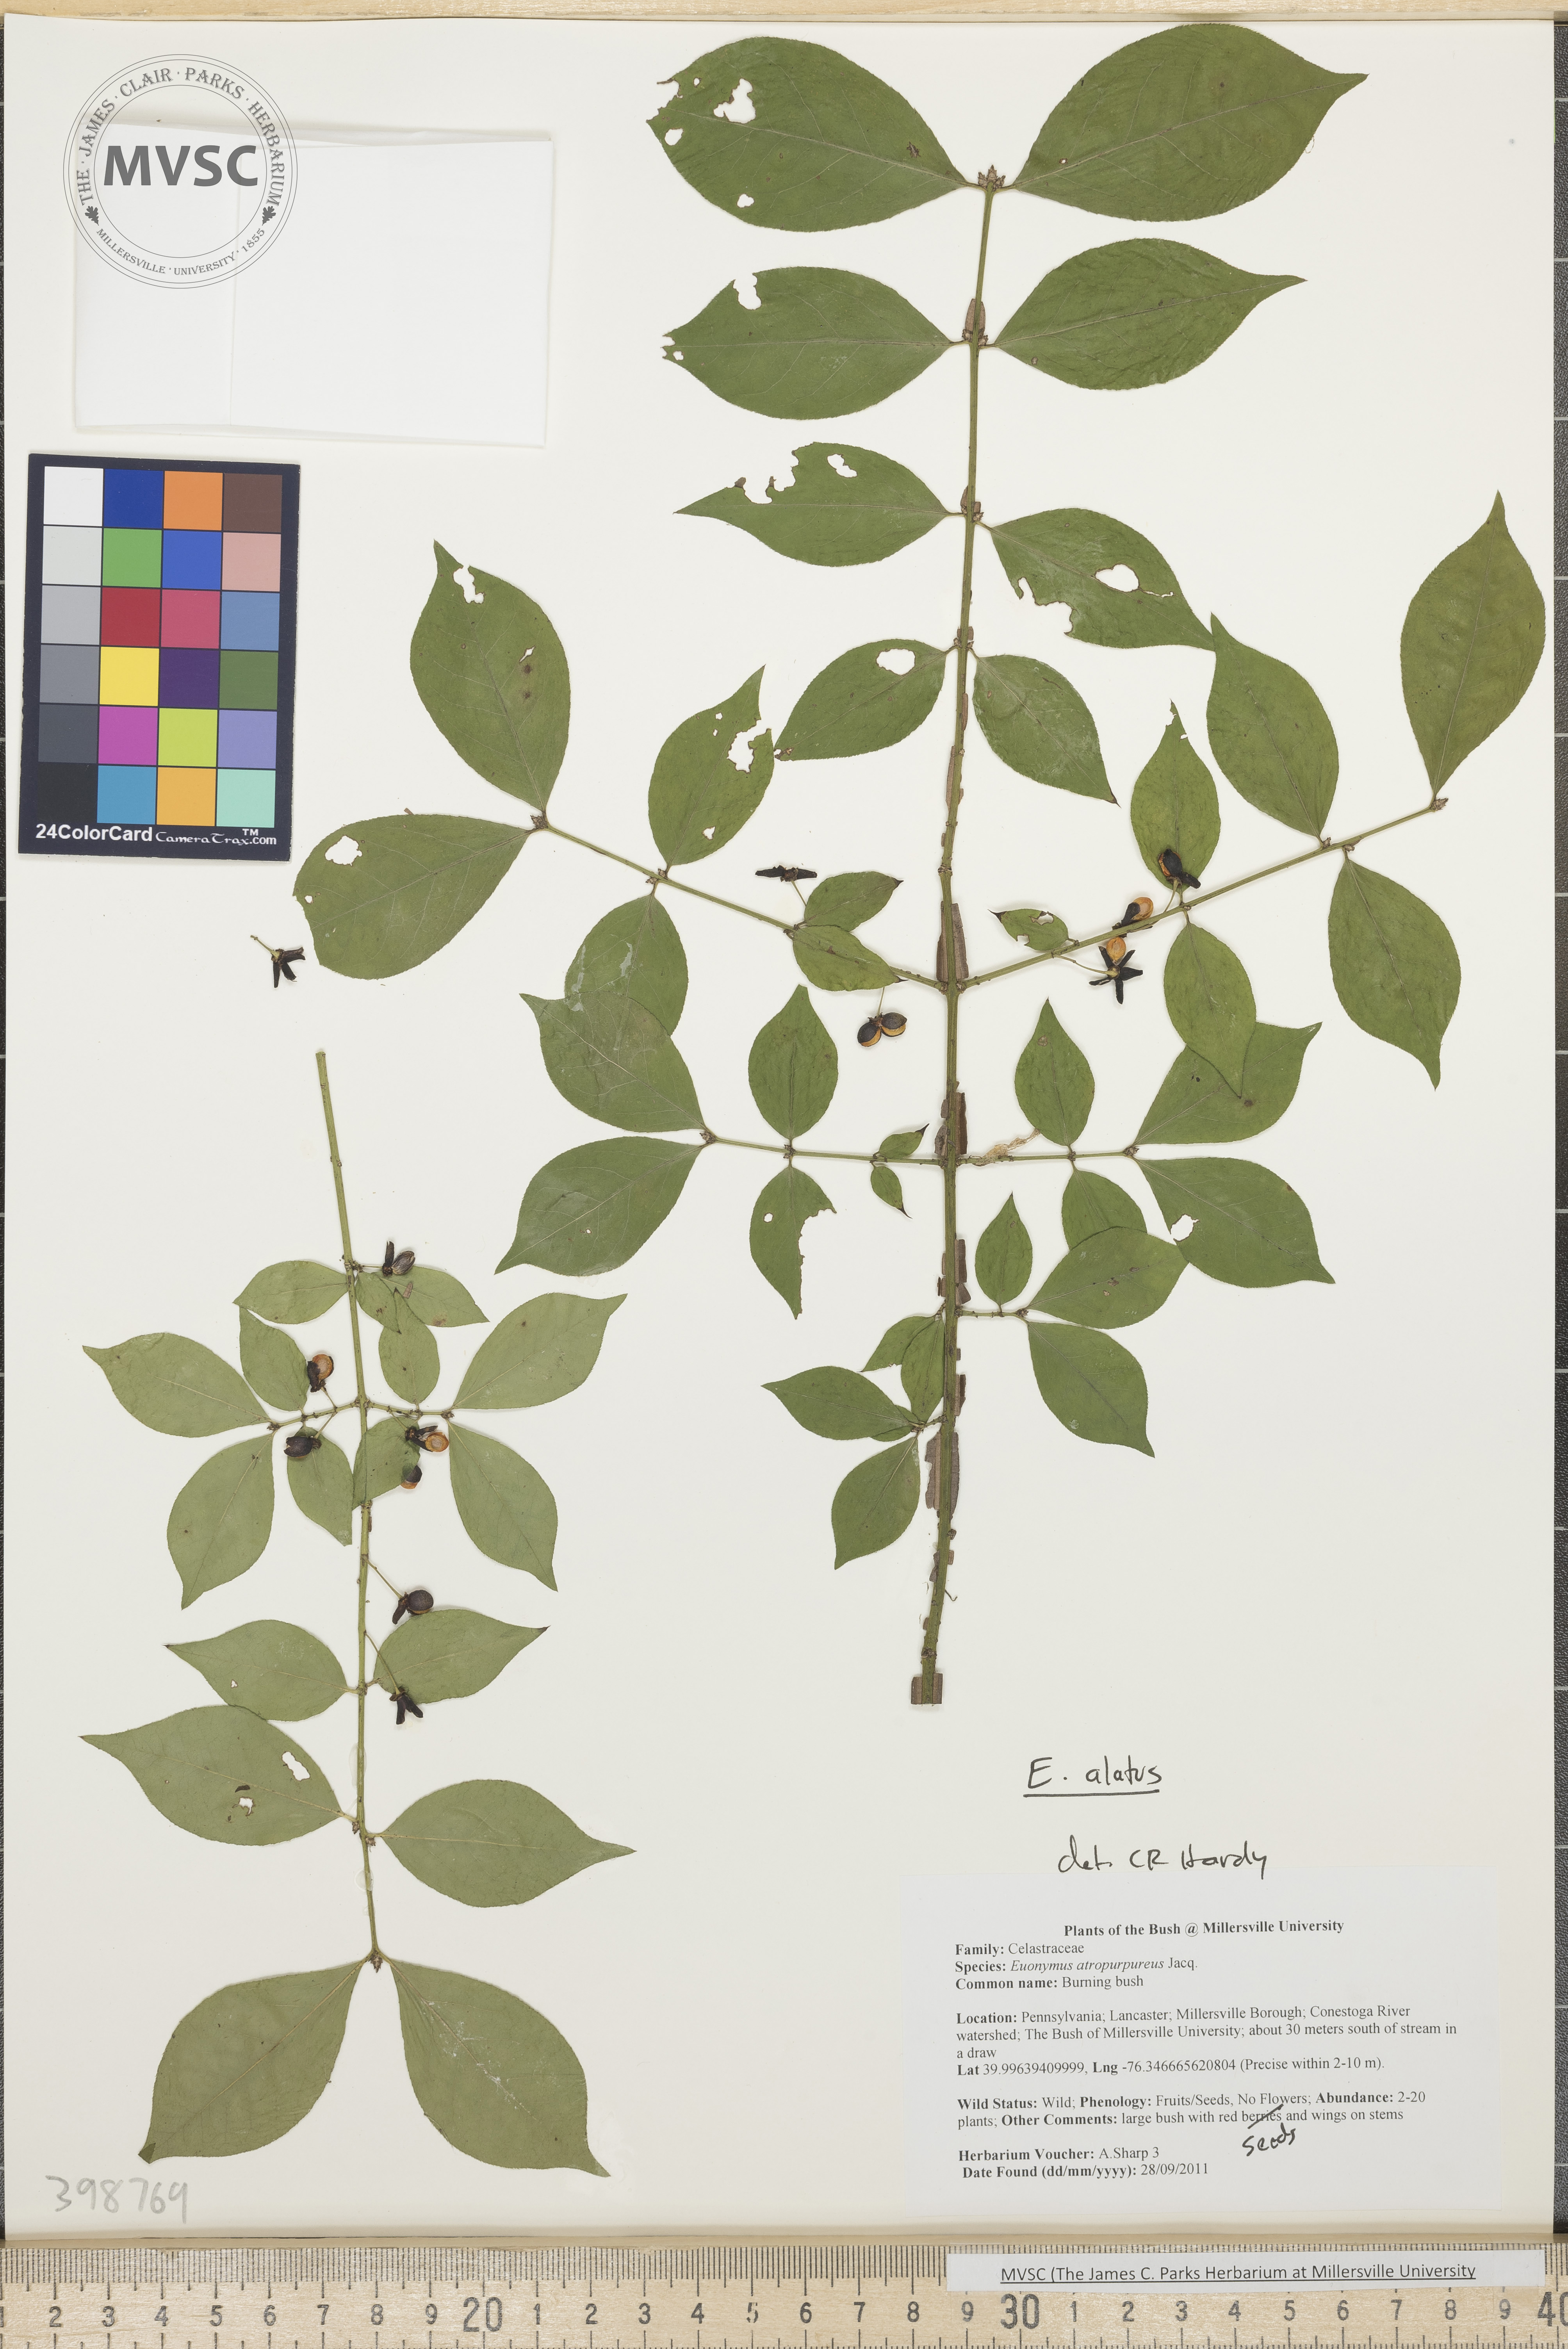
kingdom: Plantae
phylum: Tracheophyta
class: Magnoliopsida
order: Celastrales
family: Celastraceae
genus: Euonymus
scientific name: Euonymus alatus
